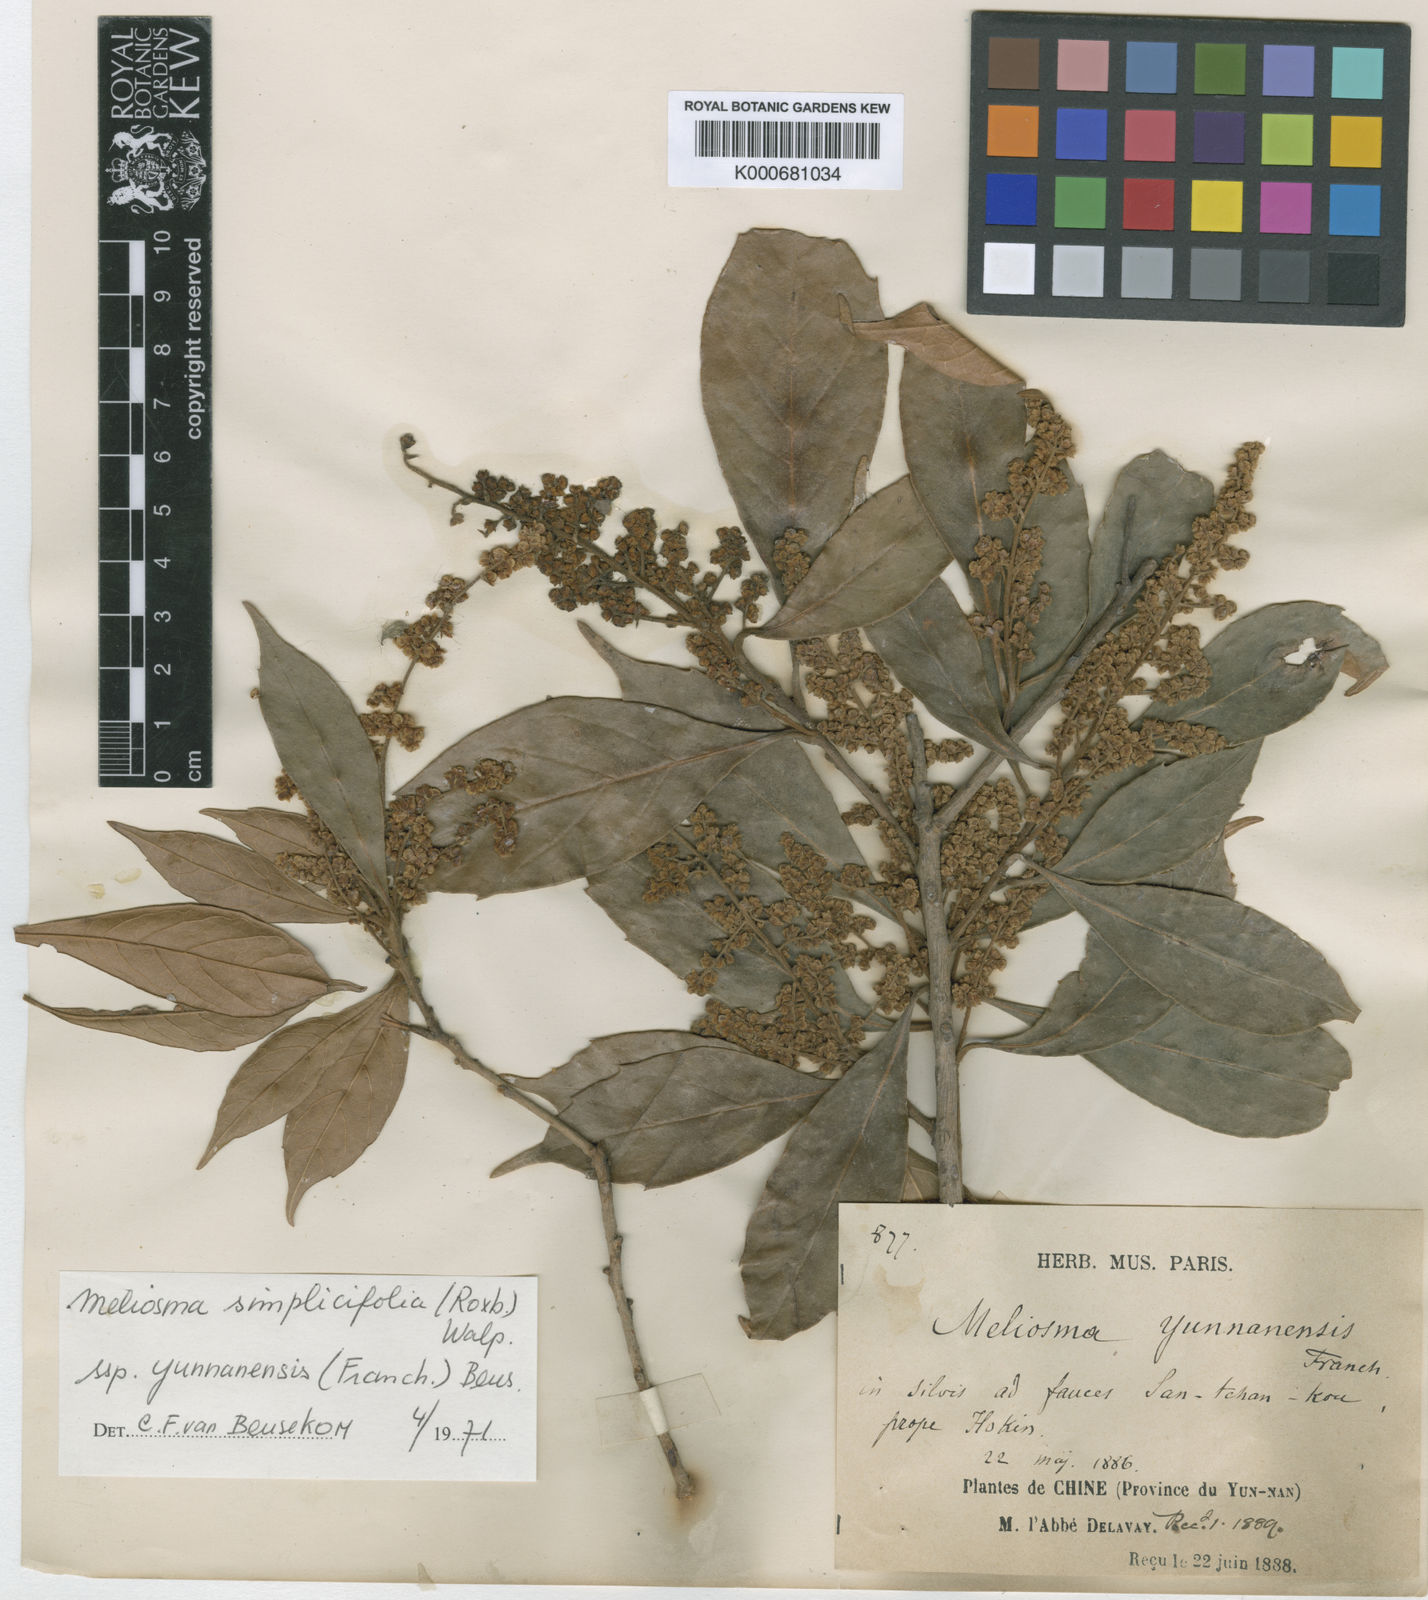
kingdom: Plantae
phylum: Tracheophyta
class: Magnoliopsida
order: Proteales
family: Sabiaceae
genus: Meliosma
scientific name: Meliosma yunnanensis
